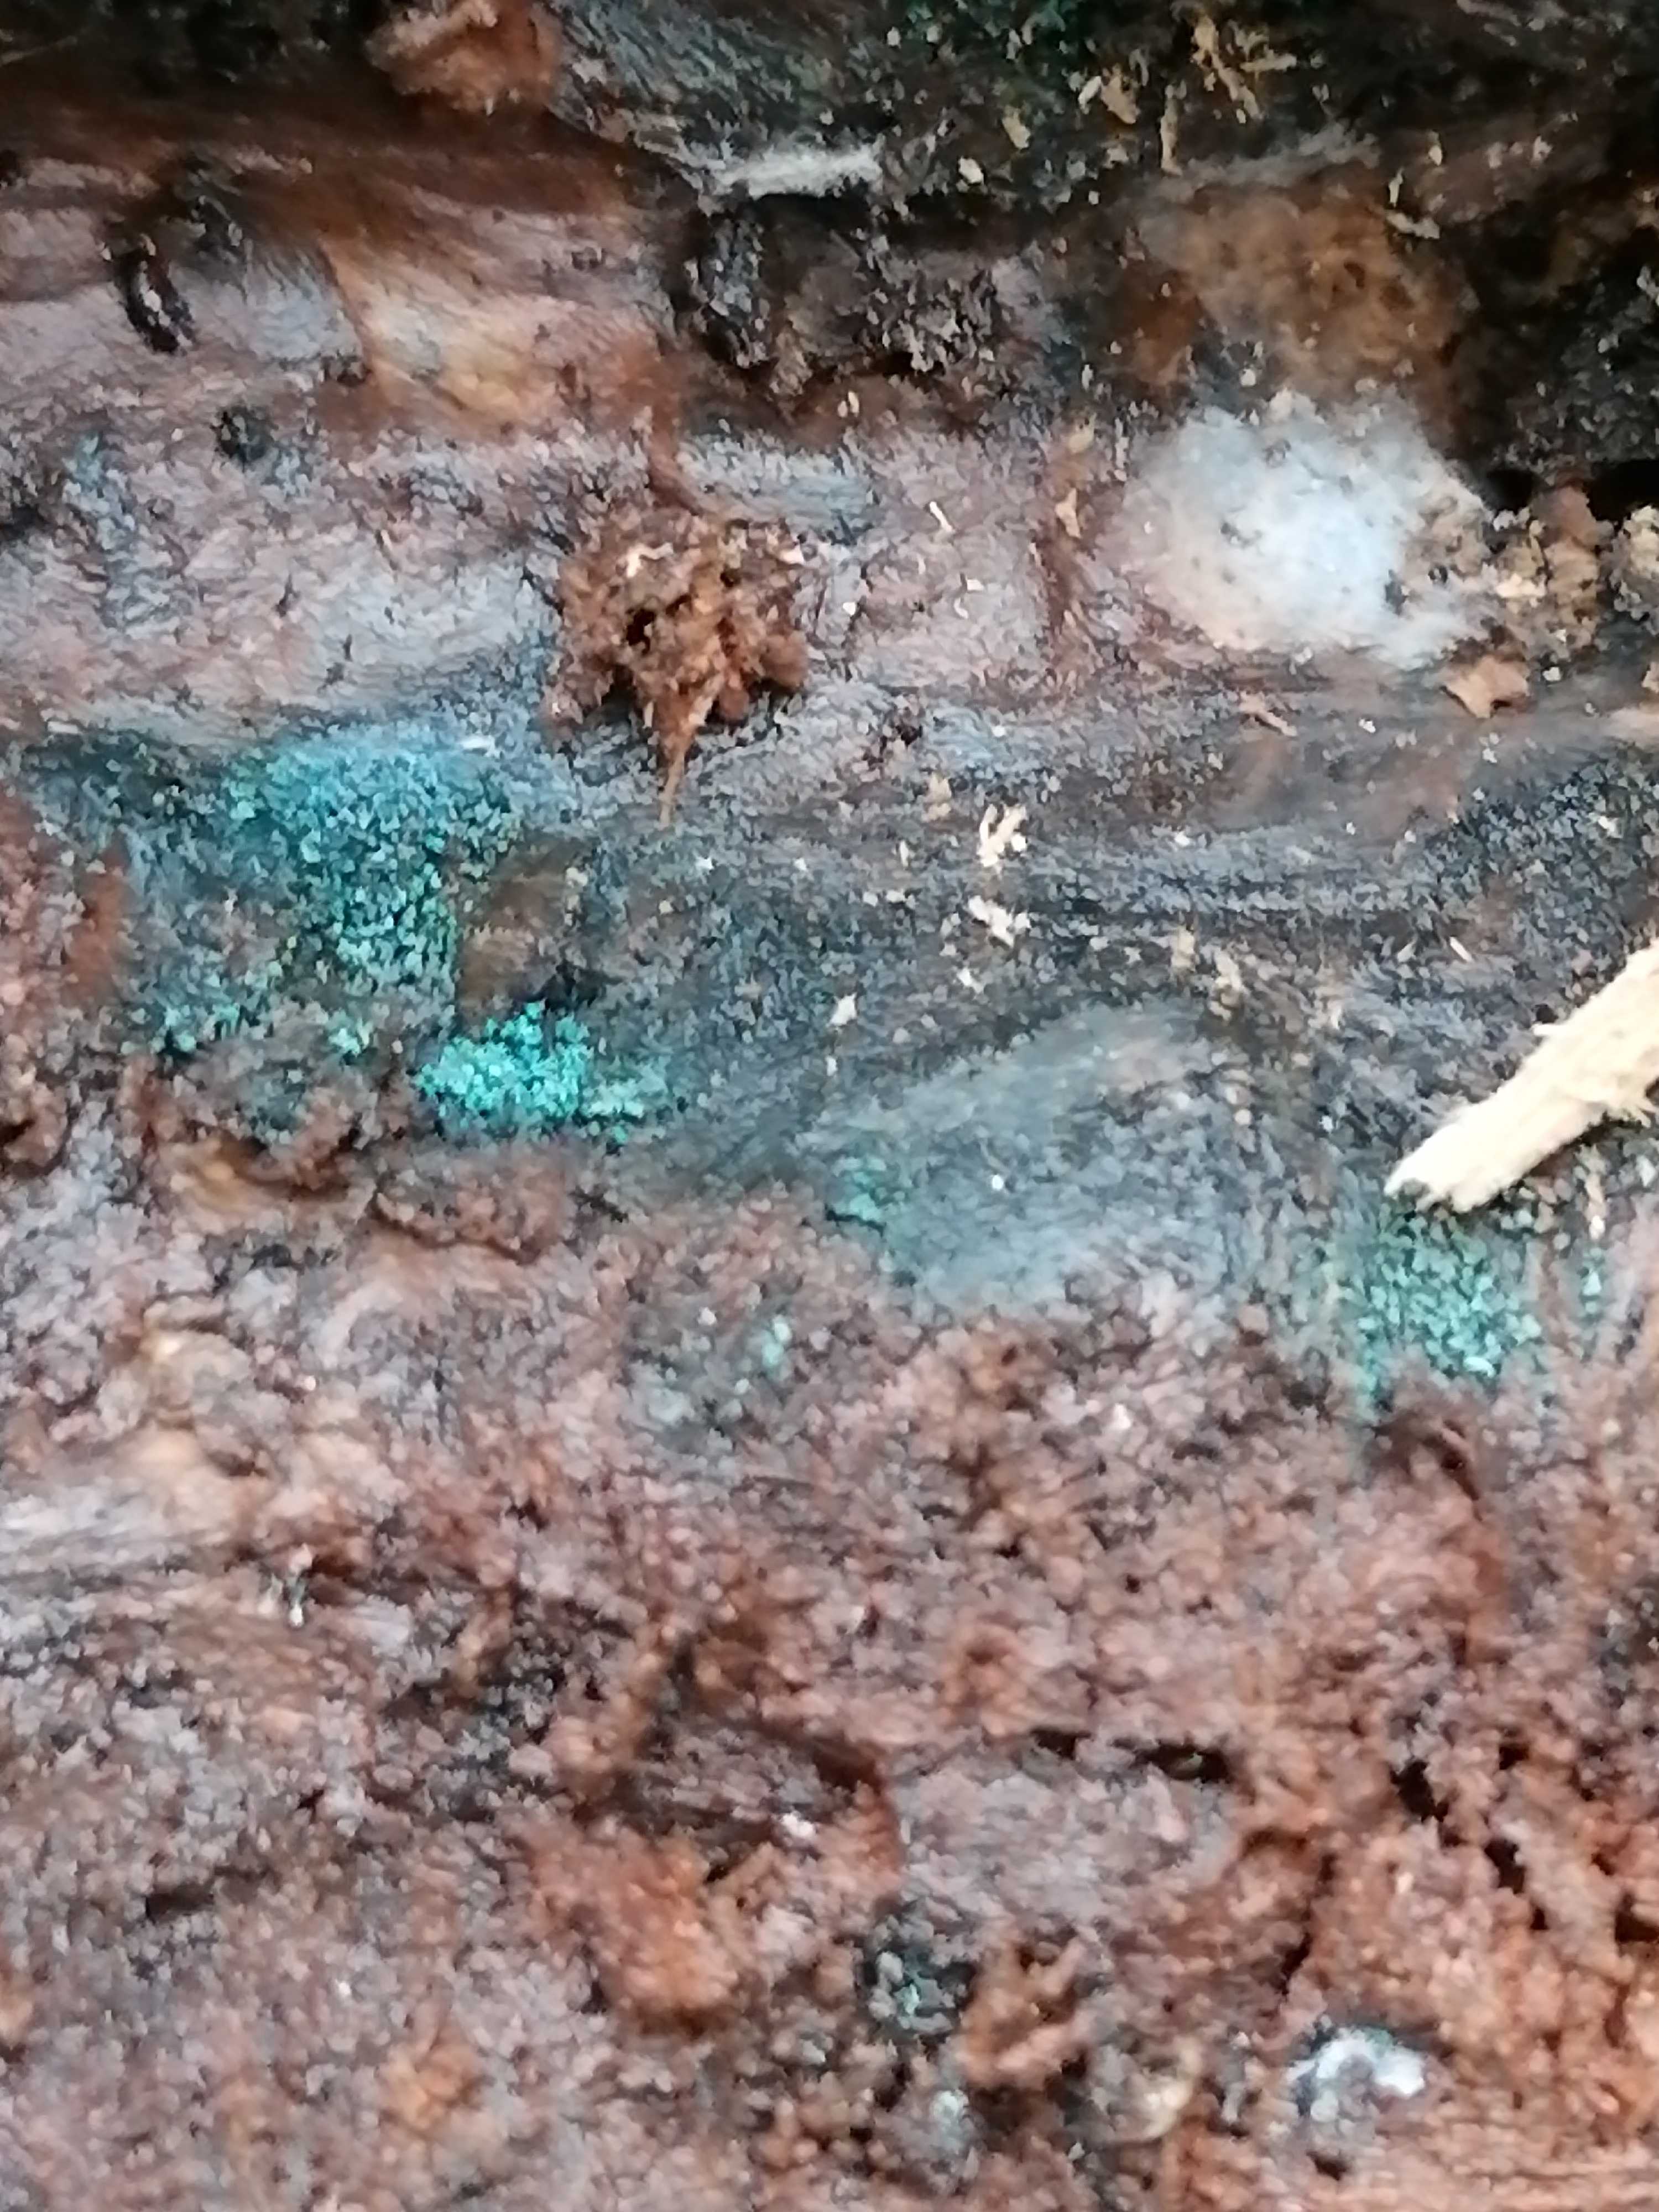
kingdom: Fungi
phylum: Ascomycota
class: Leotiomycetes
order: Leotiales
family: Tympanidaceae
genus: Dendrostilbella
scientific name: Dendrostilbella smaragdina
